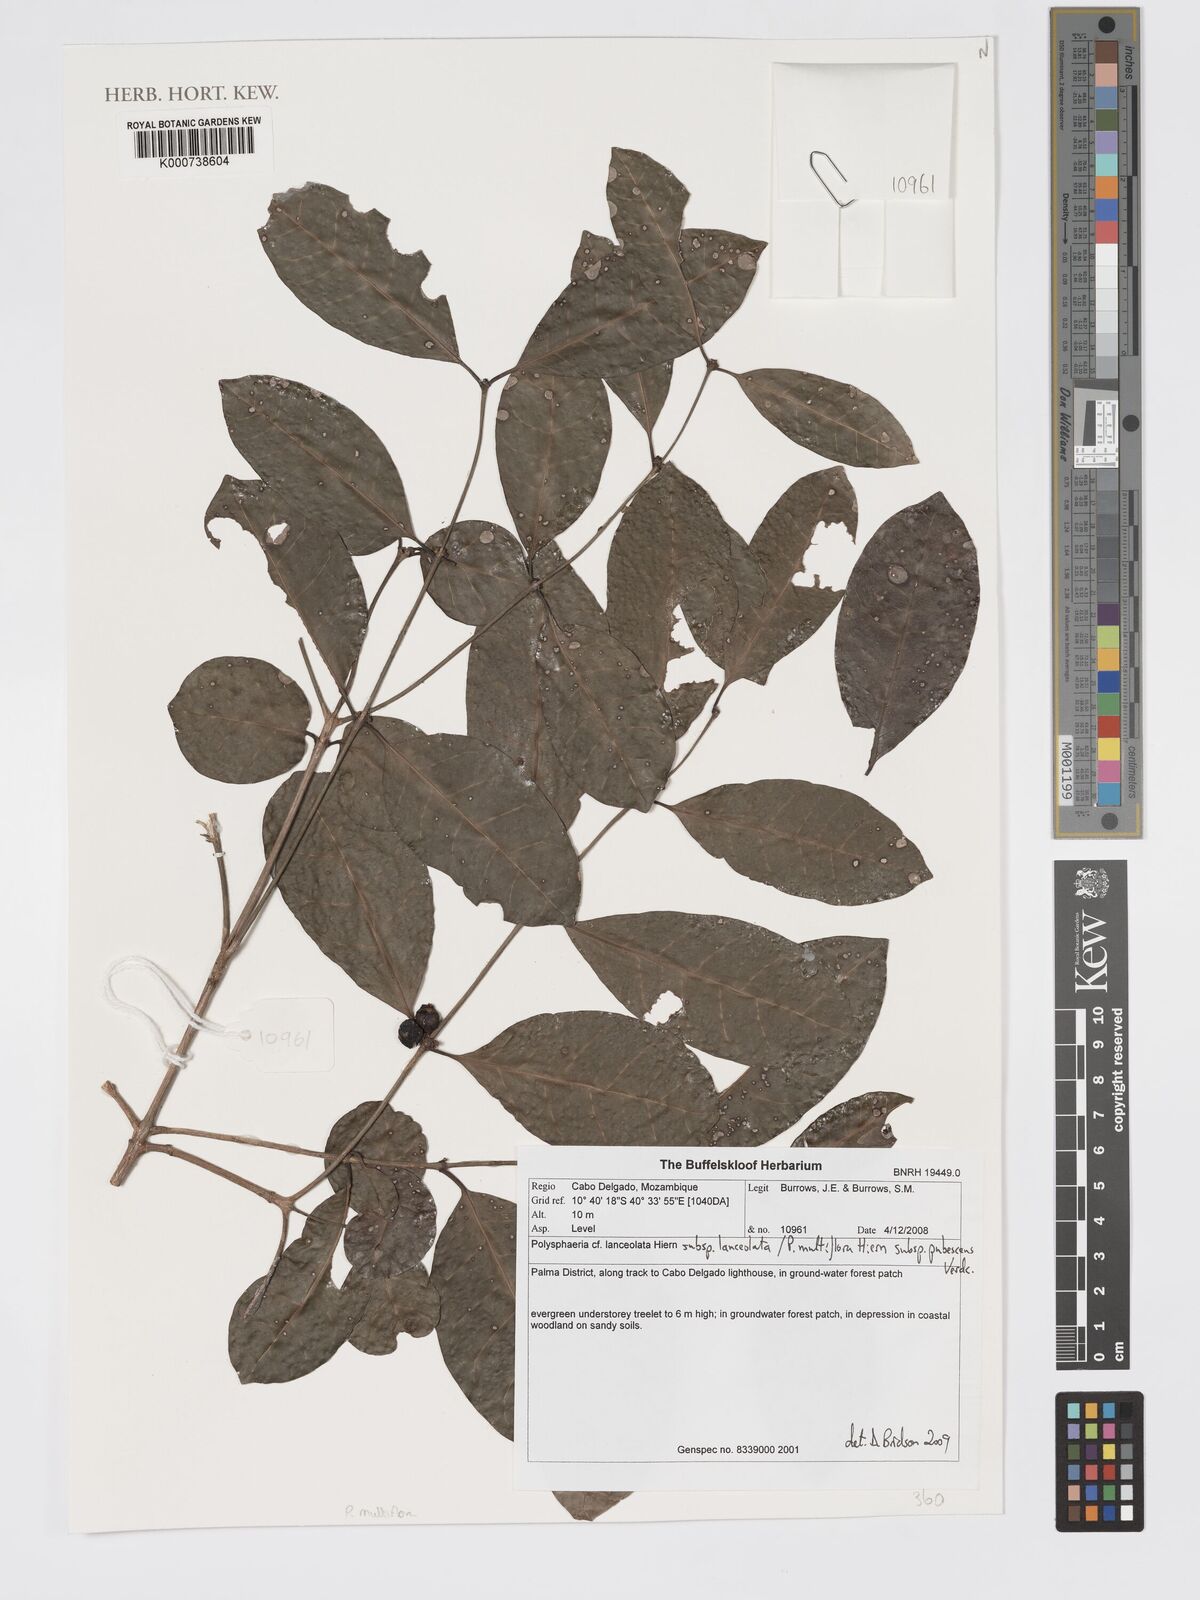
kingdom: Plantae
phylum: Tracheophyta
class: Magnoliopsida
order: Gentianales
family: Rubiaceae
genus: Polysphaeria
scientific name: Polysphaeria multiflora
